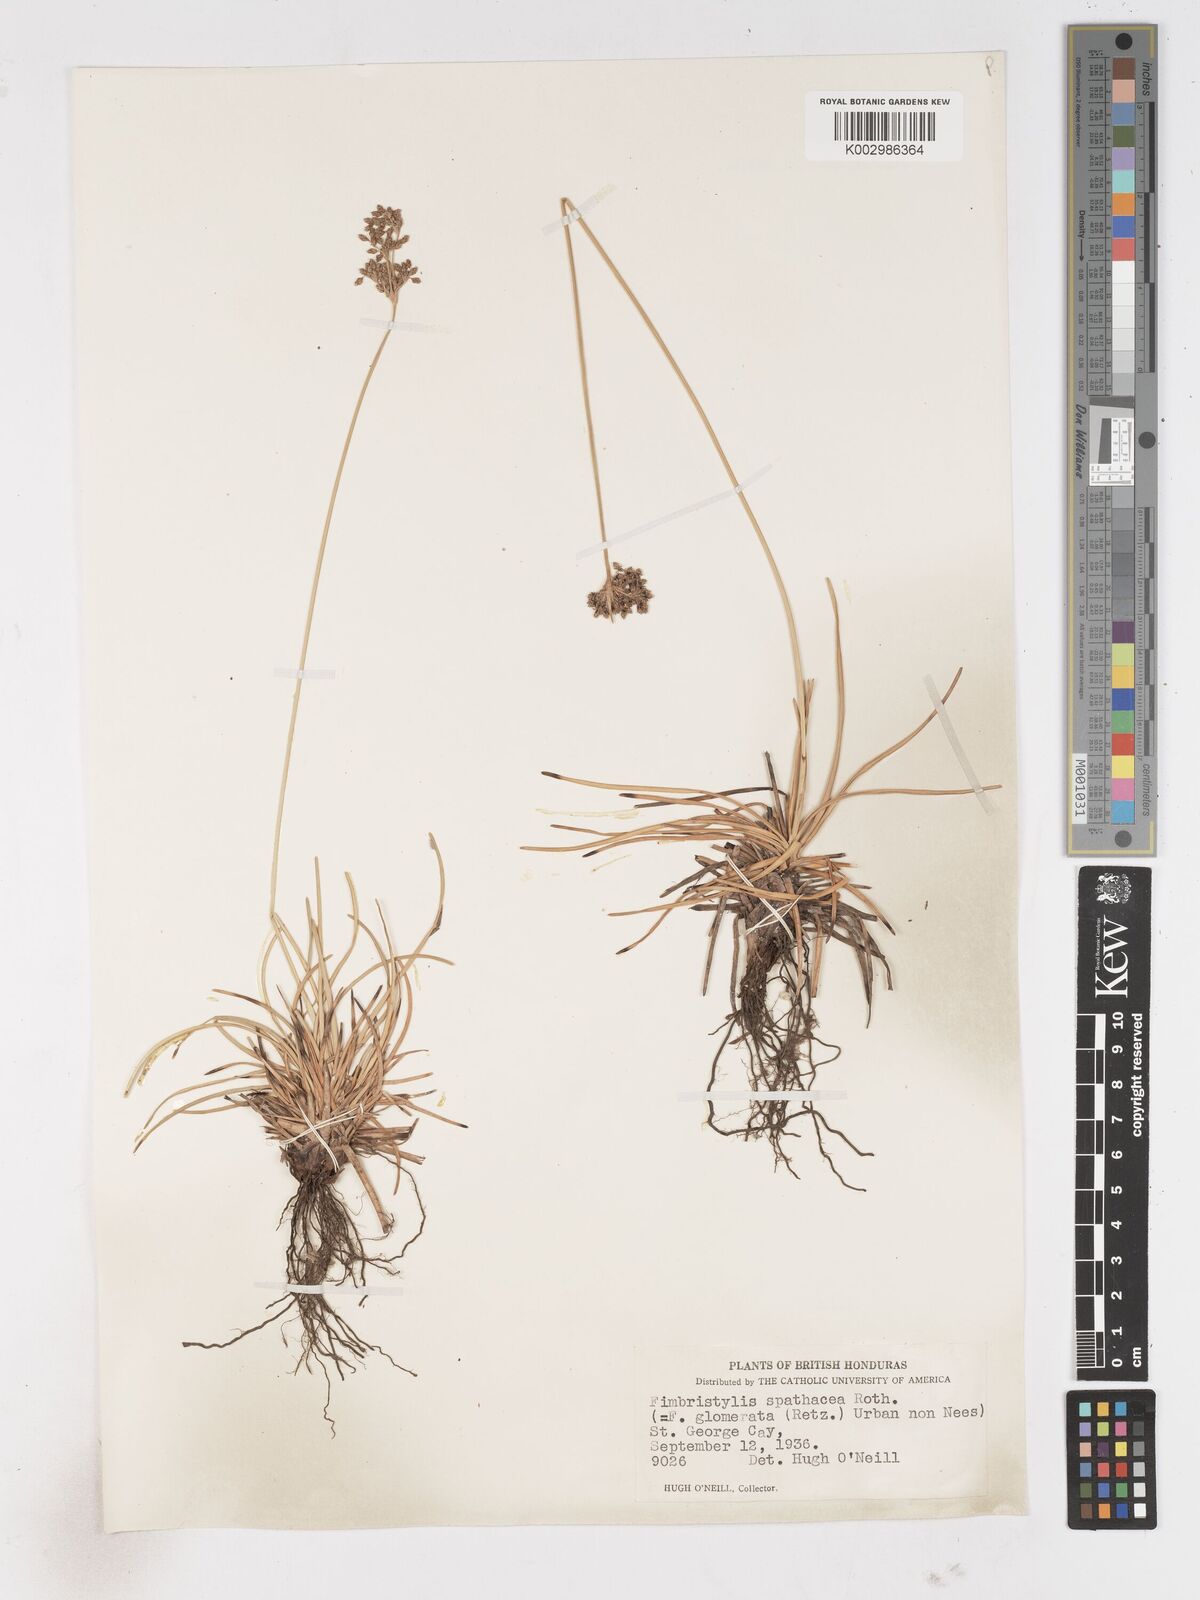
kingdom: Plantae
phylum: Tracheophyta
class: Liliopsida
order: Poales
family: Cyperaceae
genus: Fimbristylis
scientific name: Fimbristylis cymosa
